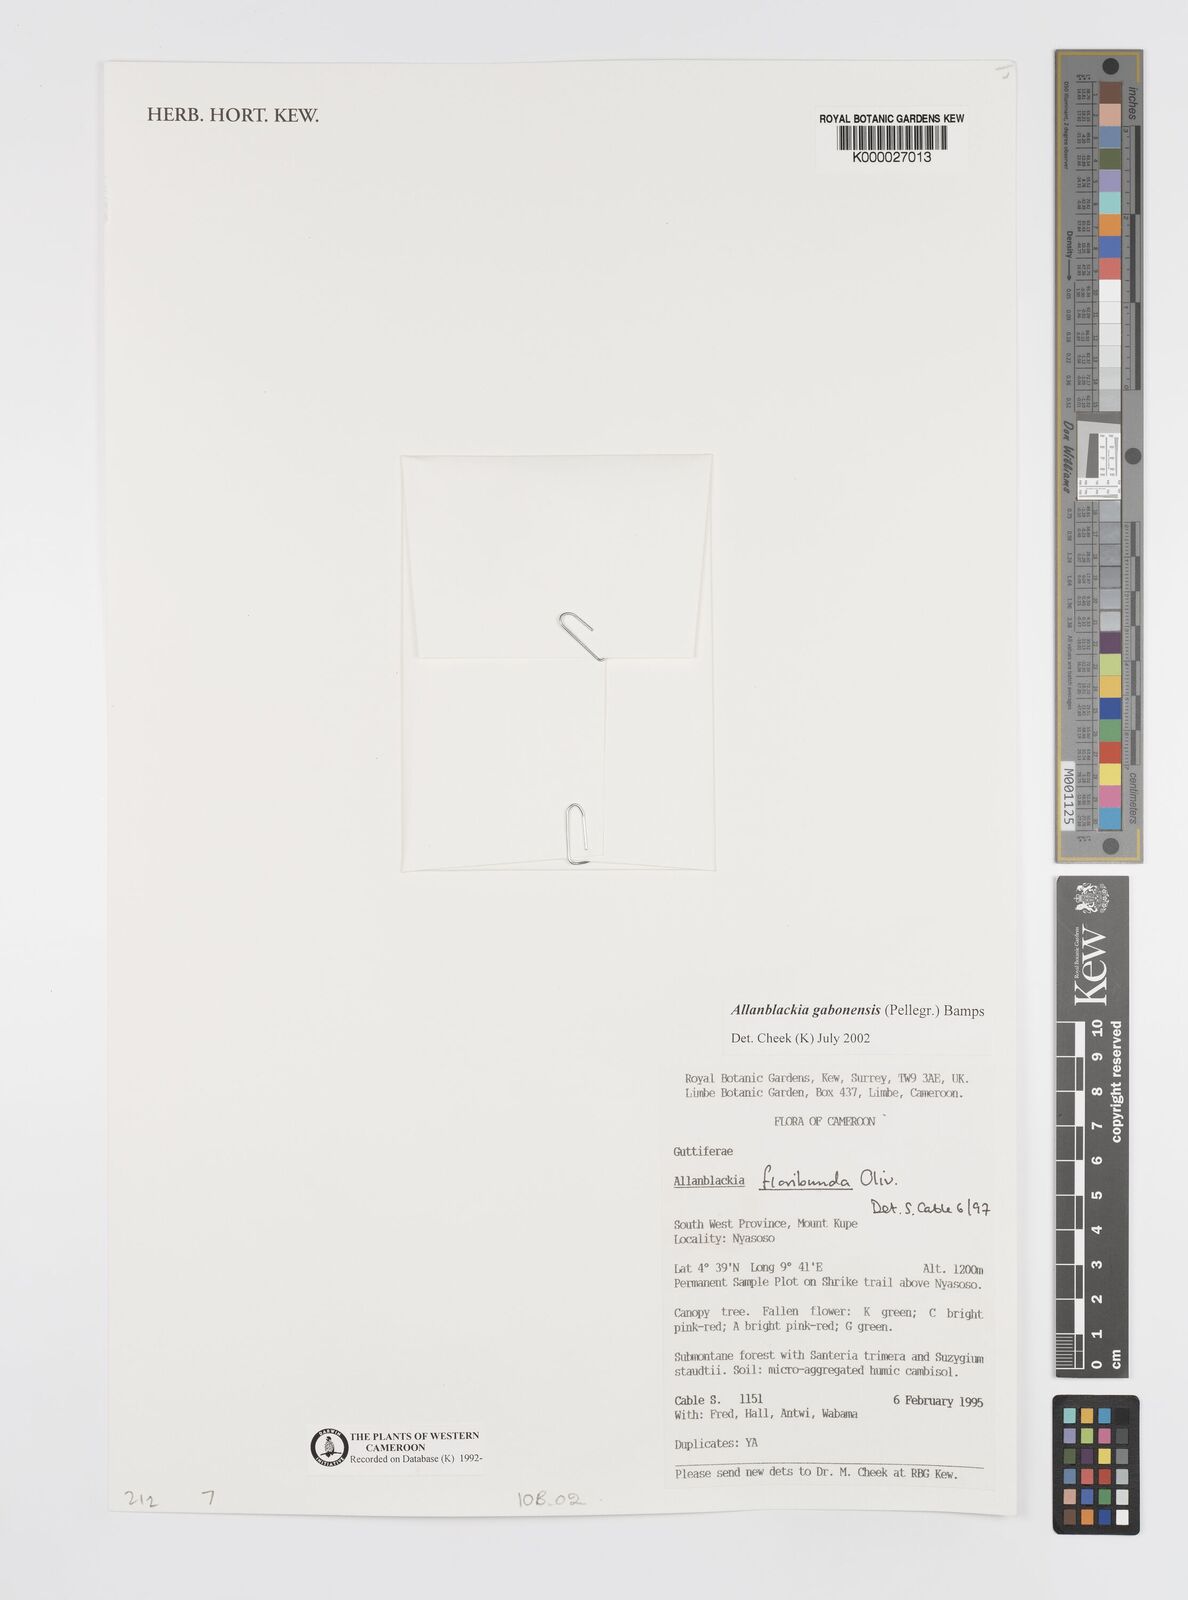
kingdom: Plantae
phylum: Tracheophyta
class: Magnoliopsida
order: Malpighiales
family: Clusiaceae
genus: Allanblackia
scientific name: Allanblackia gabonensis
